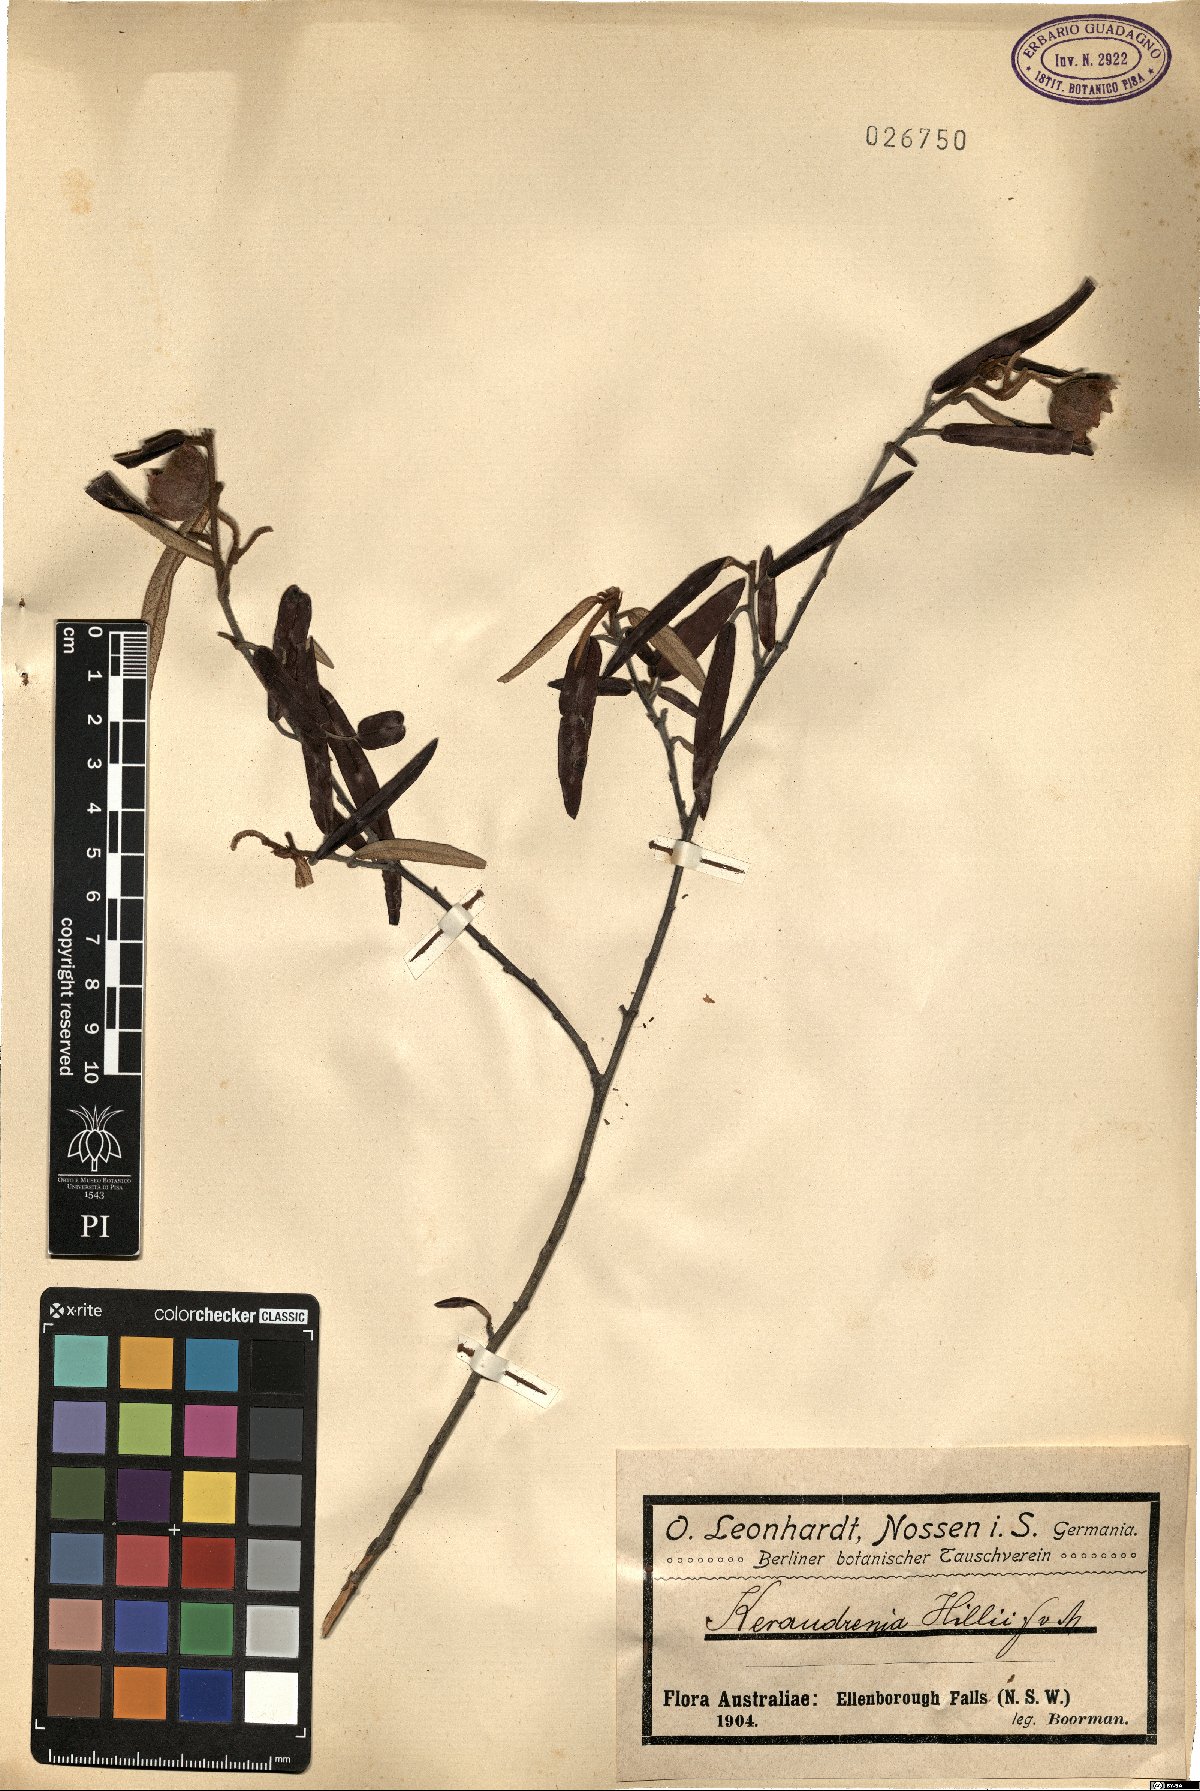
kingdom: Plantae
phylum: Tracheophyta
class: Magnoliopsida
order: Malvales
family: Malvaceae
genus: Seringia
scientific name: Seringia hillii
